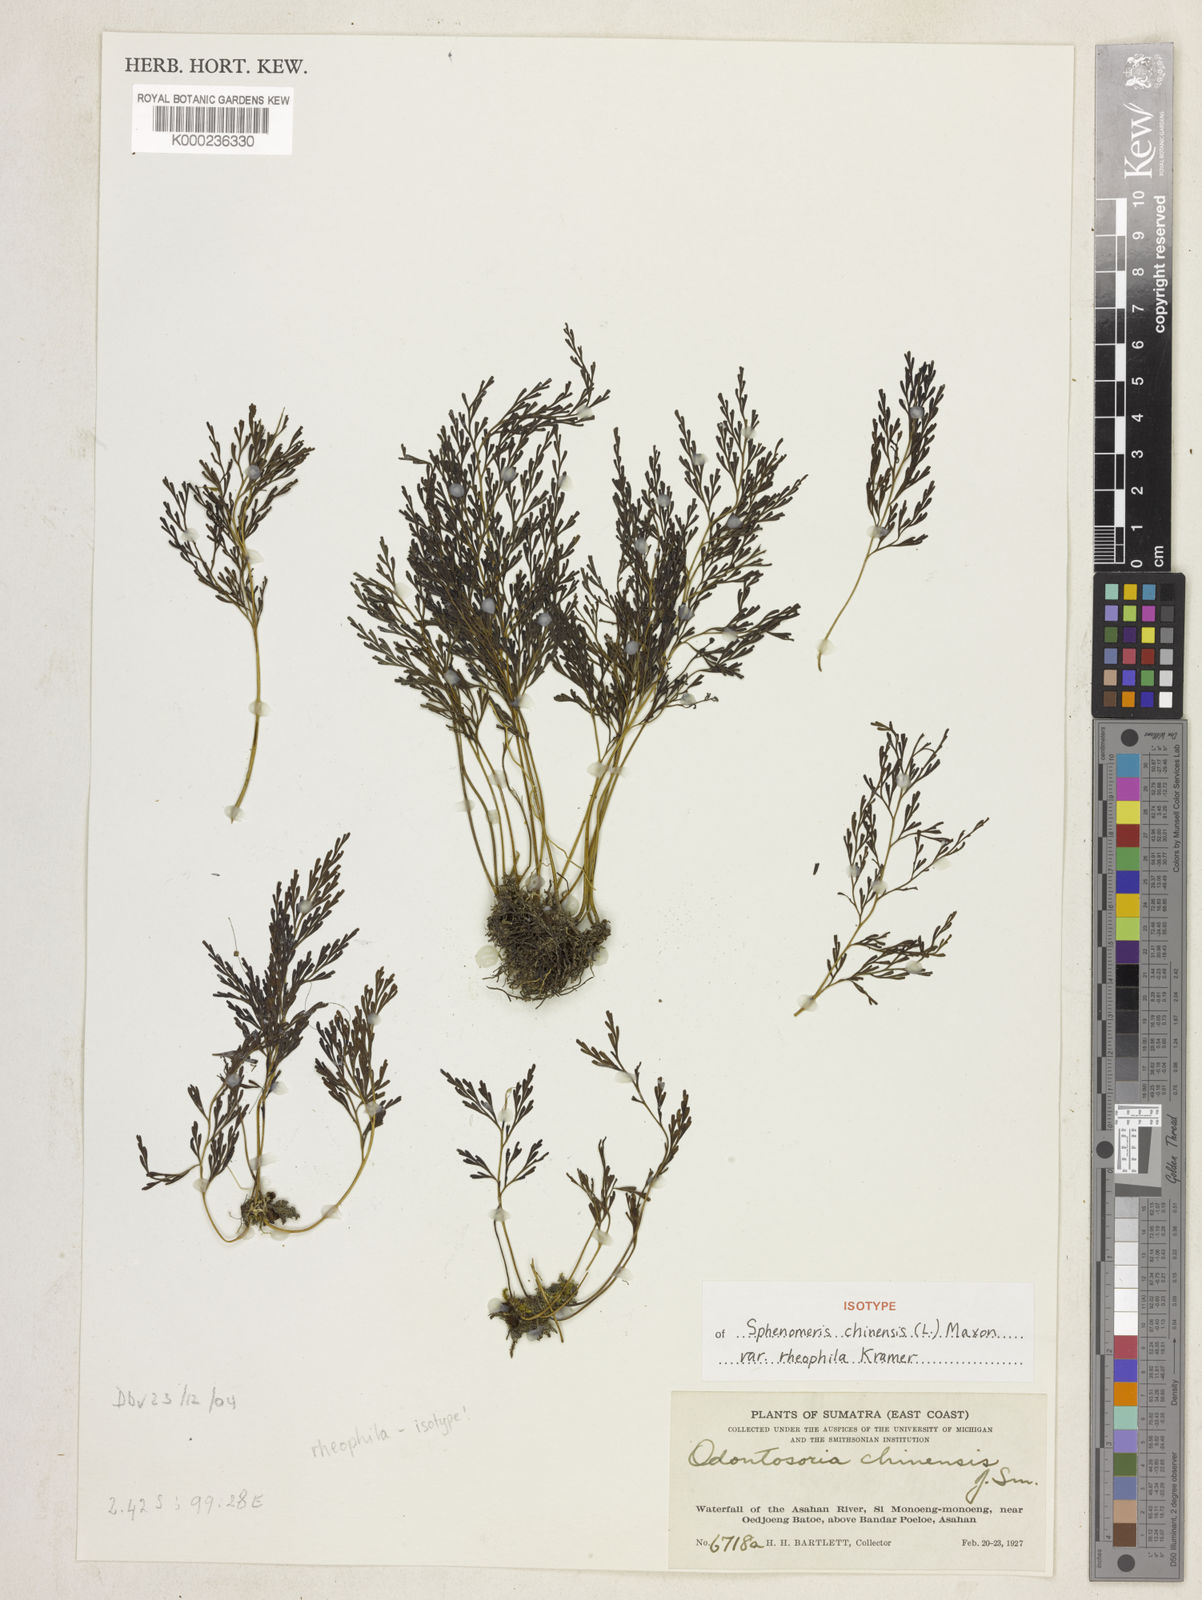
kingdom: Plantae
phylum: Tracheophyta
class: Polypodiopsida
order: Polypodiales
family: Lindsaeaceae
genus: Odontosoria
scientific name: Odontosoria chinensis
